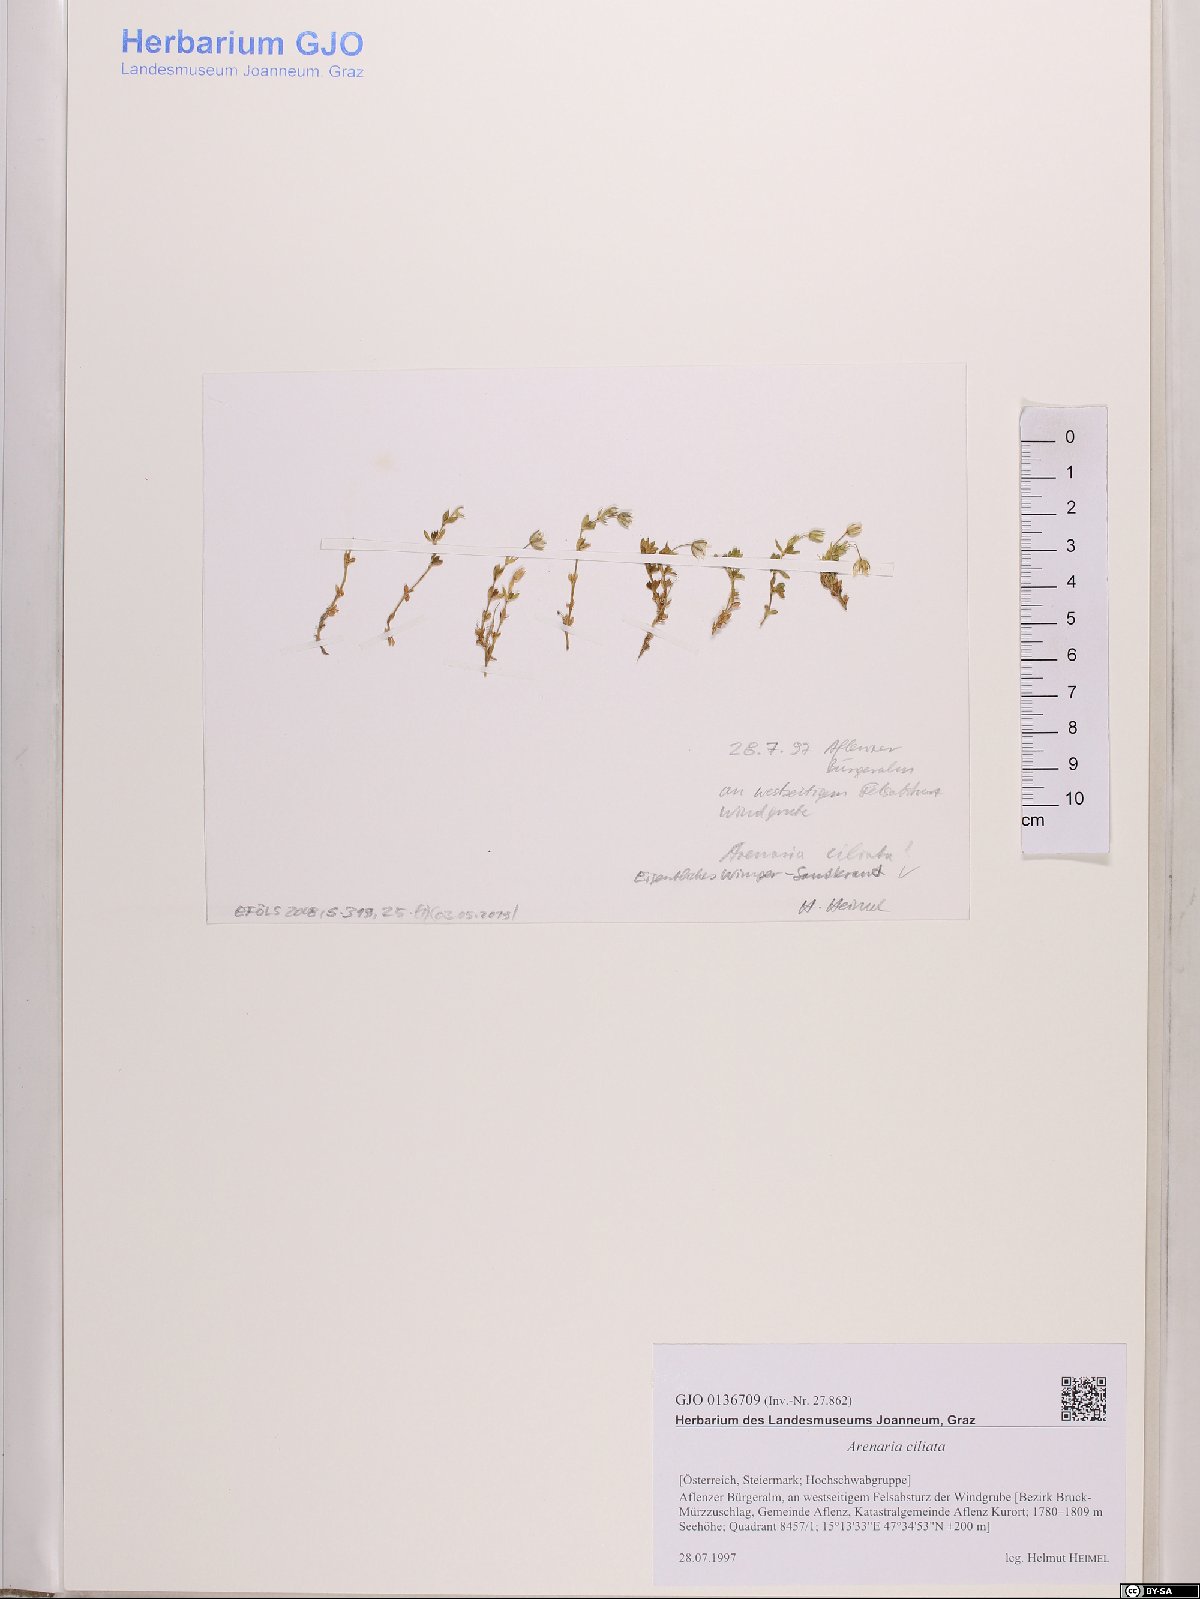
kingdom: Plantae
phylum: Tracheophyta
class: Magnoliopsida
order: Caryophyllales
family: Caryophyllaceae
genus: Arenaria
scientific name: Arenaria ciliata
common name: Fringed sandwort
